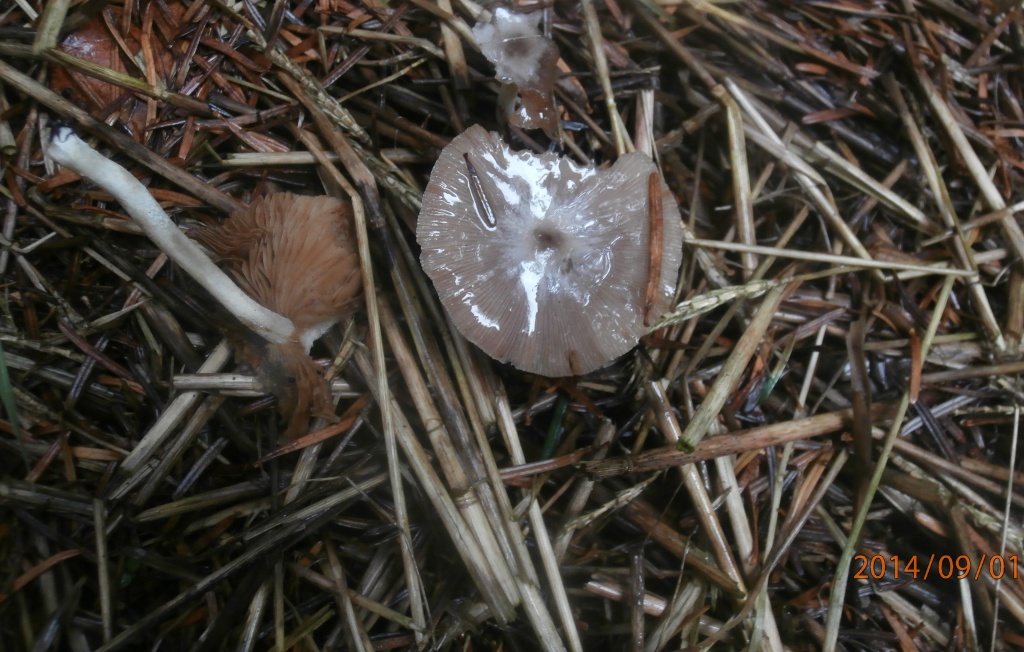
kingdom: Fungi
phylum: Basidiomycota
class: Agaricomycetes
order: Agaricales
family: Bolbitiaceae
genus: Bolbitius
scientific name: Bolbitius demangei
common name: blygrå gulhat
